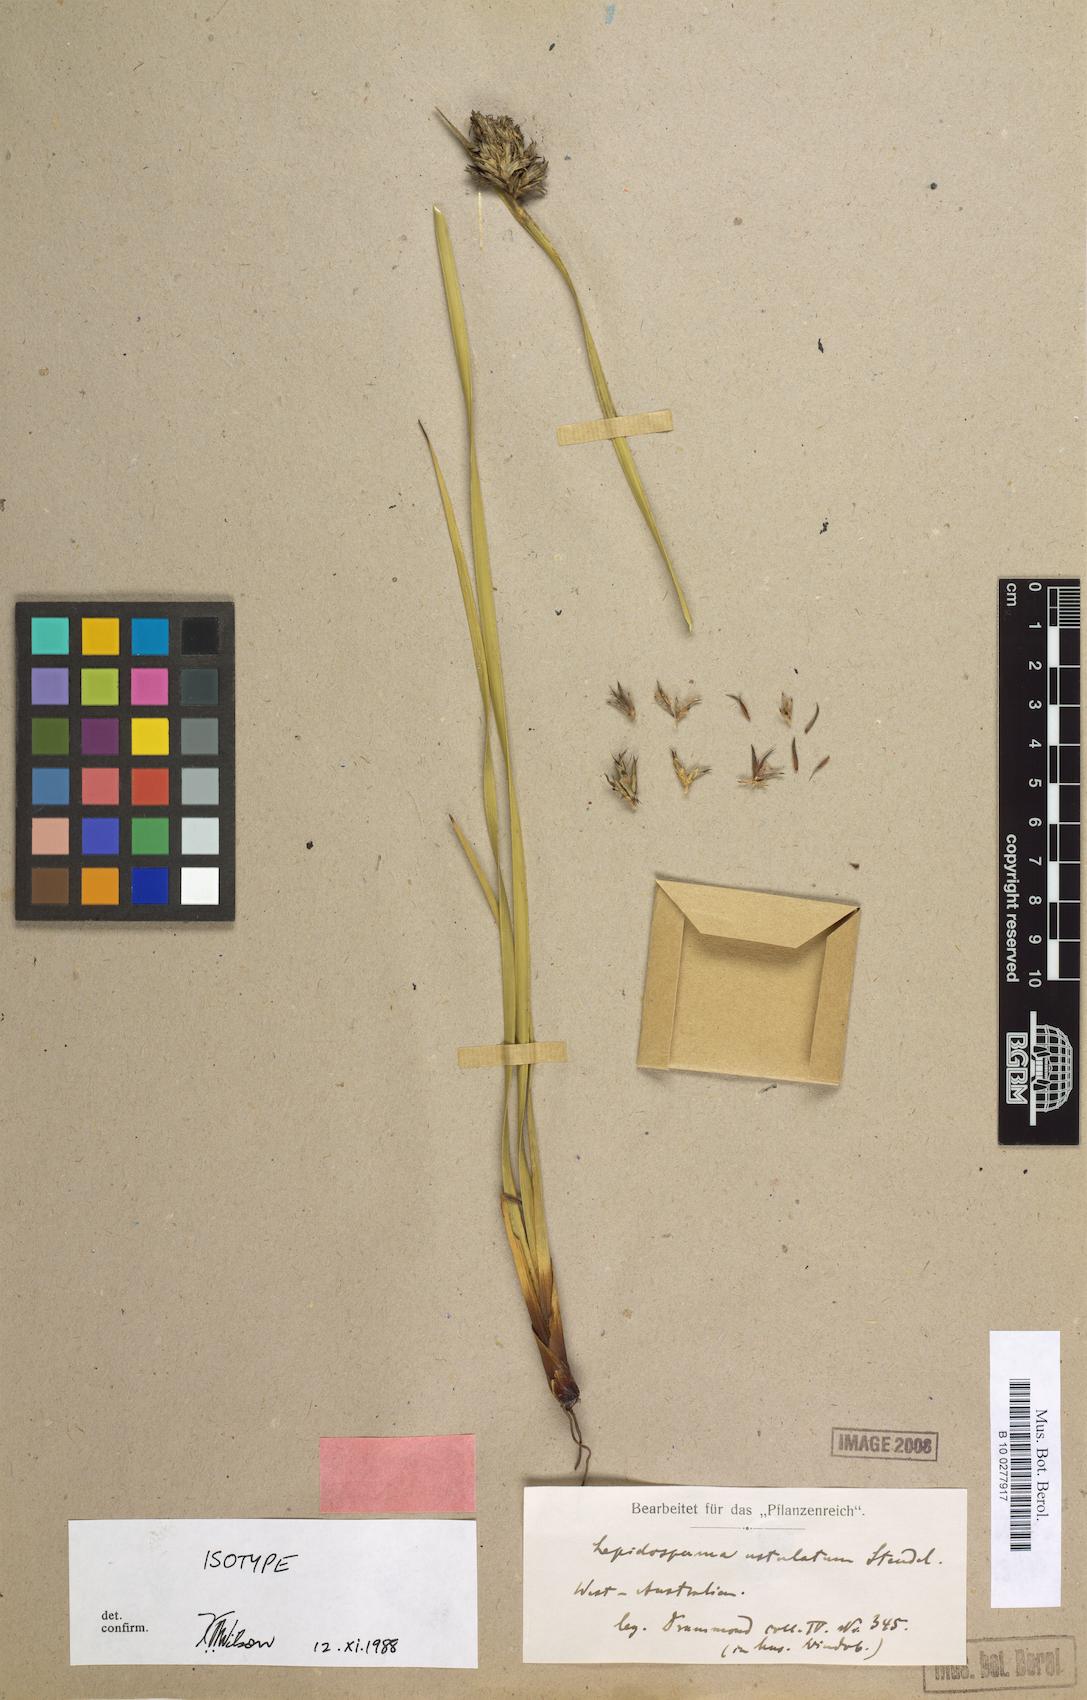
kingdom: Plantae
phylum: Tracheophyta
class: Liliopsida
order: Poales
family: Cyperaceae
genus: Lepidosperma
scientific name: Lepidosperma ustulatum
